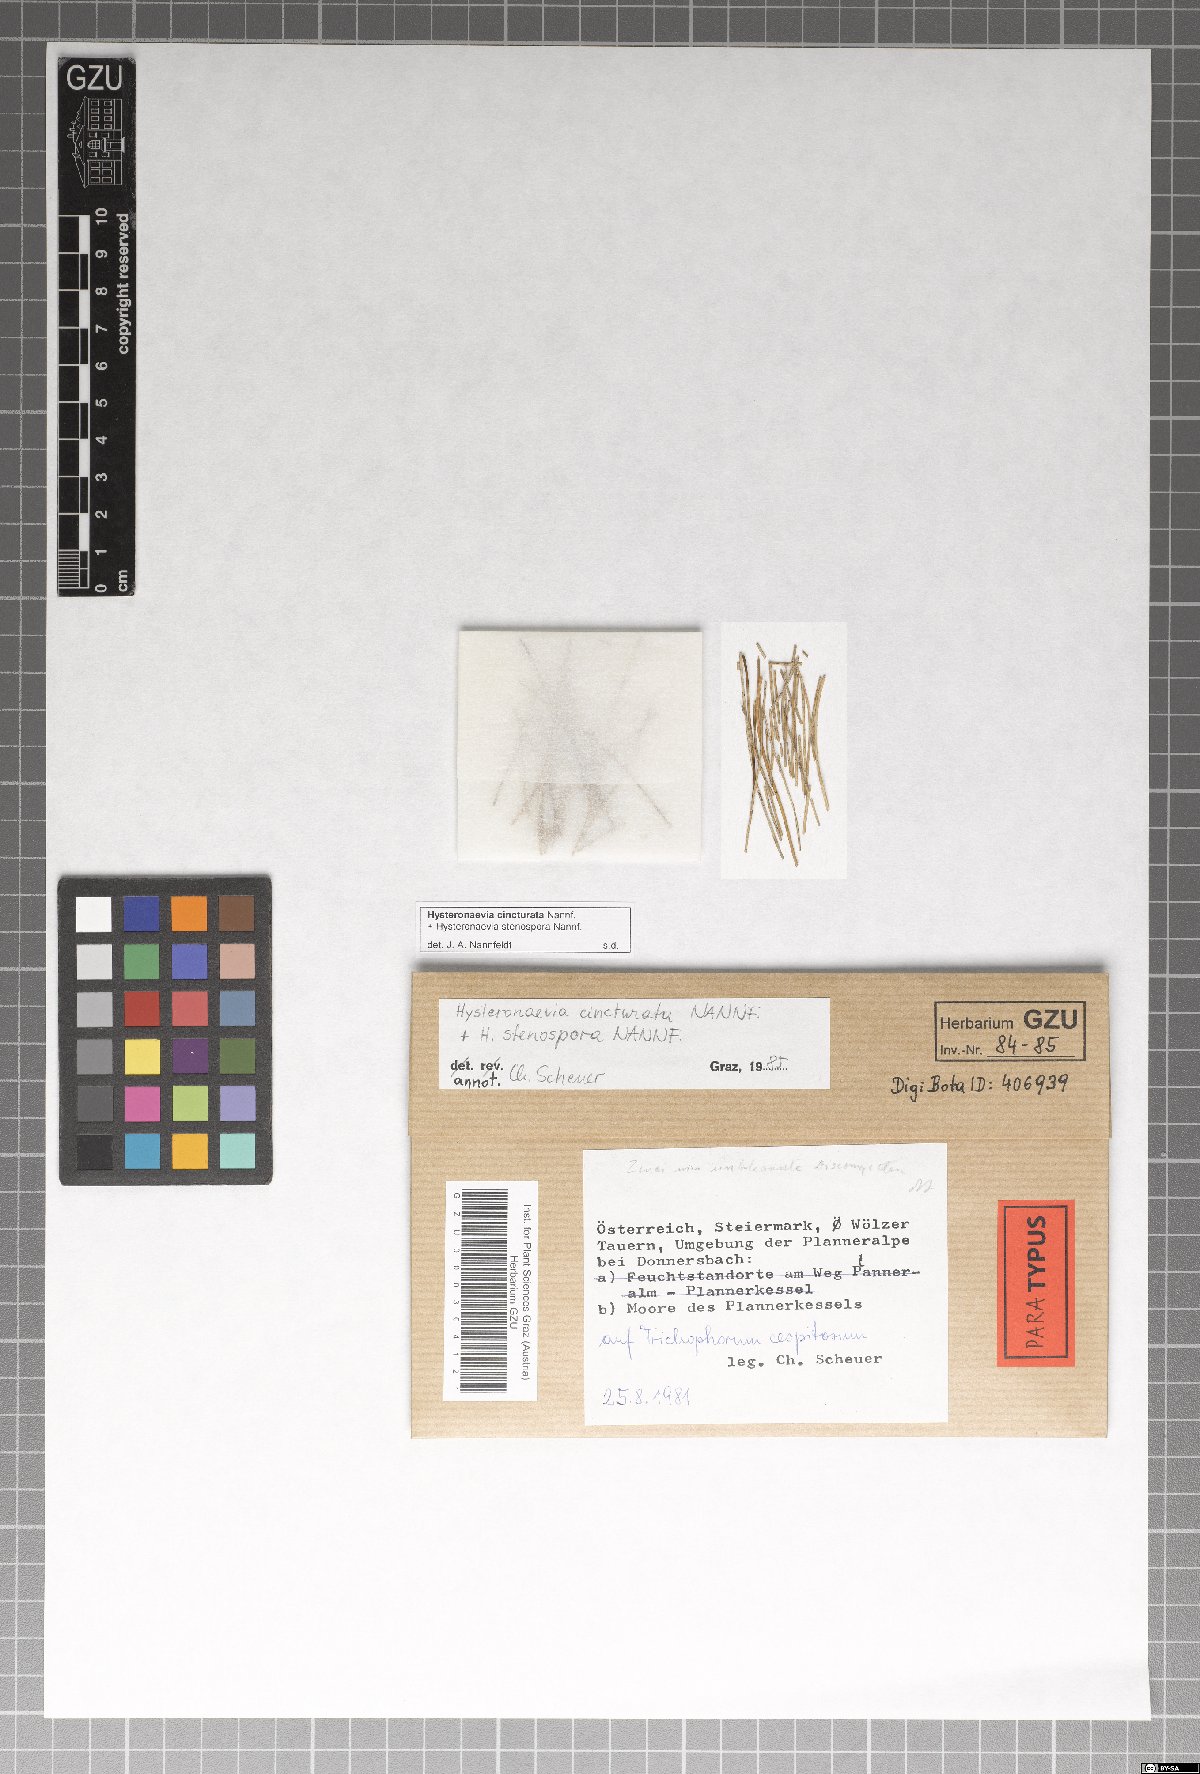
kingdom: Fungi
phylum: Ascomycota
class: Leotiomycetes
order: Helotiales
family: Dermateaceae
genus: Hysteronaevia
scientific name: Hysteronaevia cincturata
